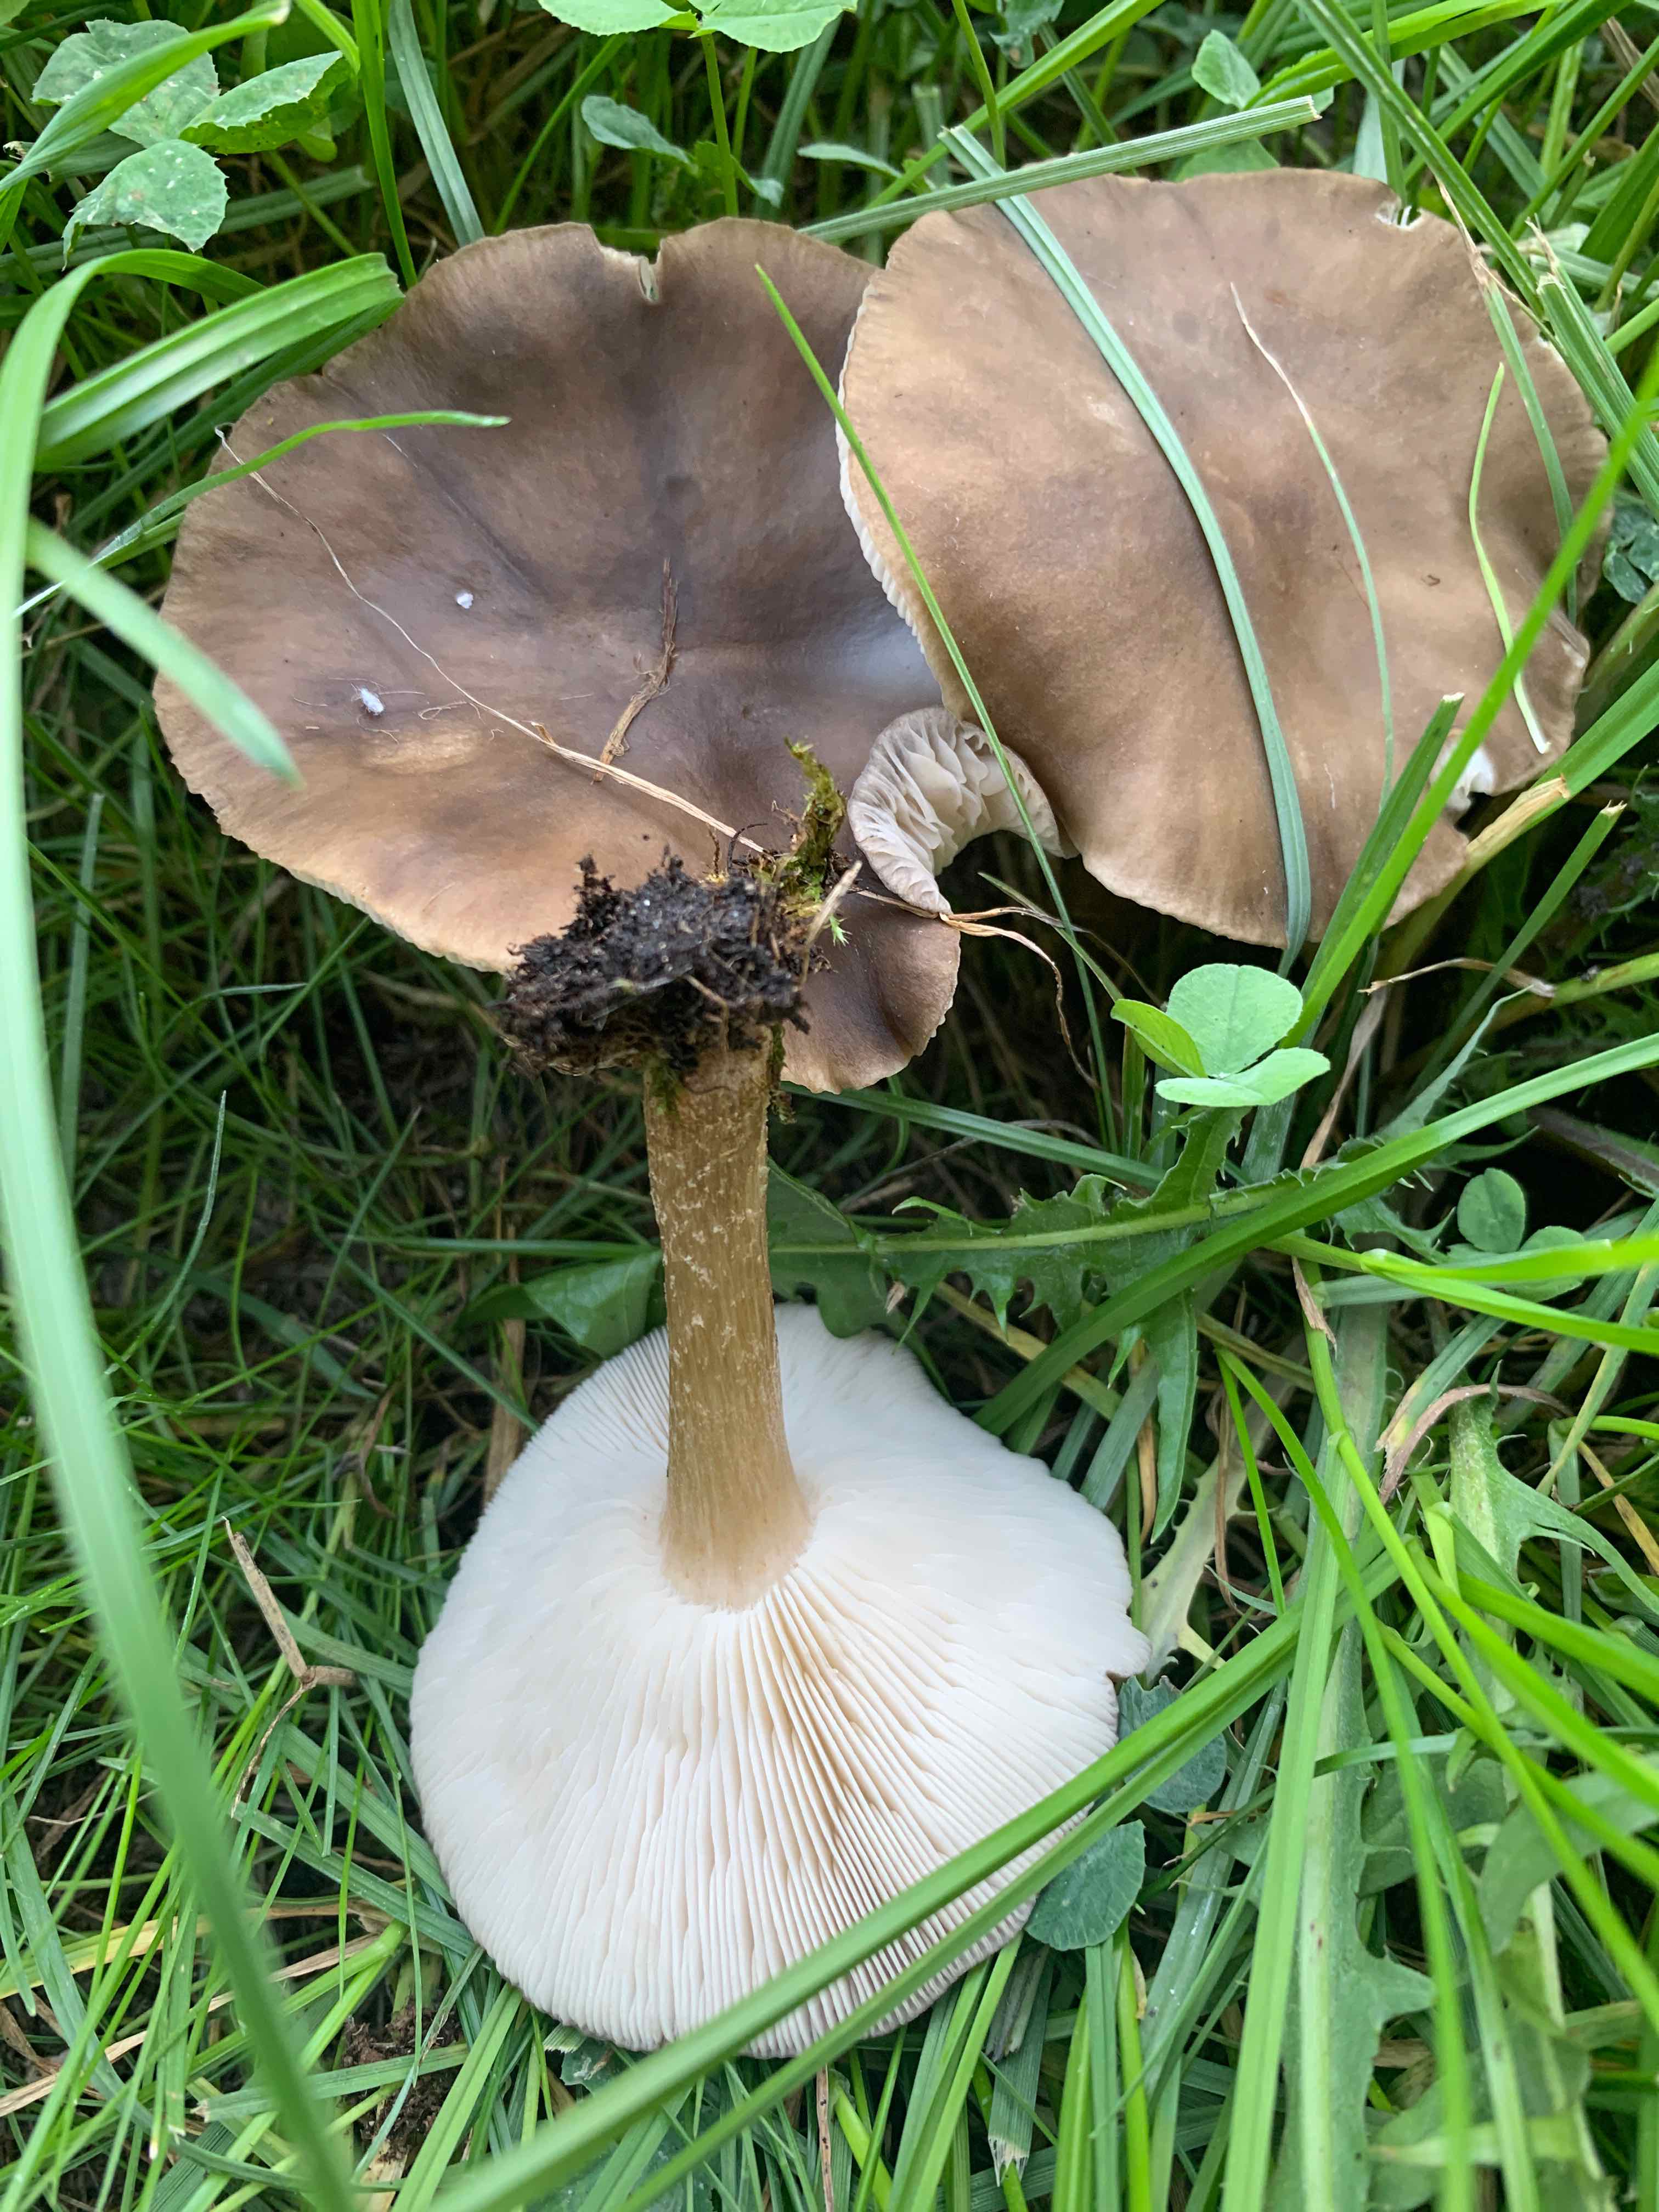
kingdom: Fungi
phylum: Basidiomycota
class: Agaricomycetes
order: Agaricales
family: Tricholomataceae
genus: Melanoleuca
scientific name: Melanoleuca
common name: munkehat
